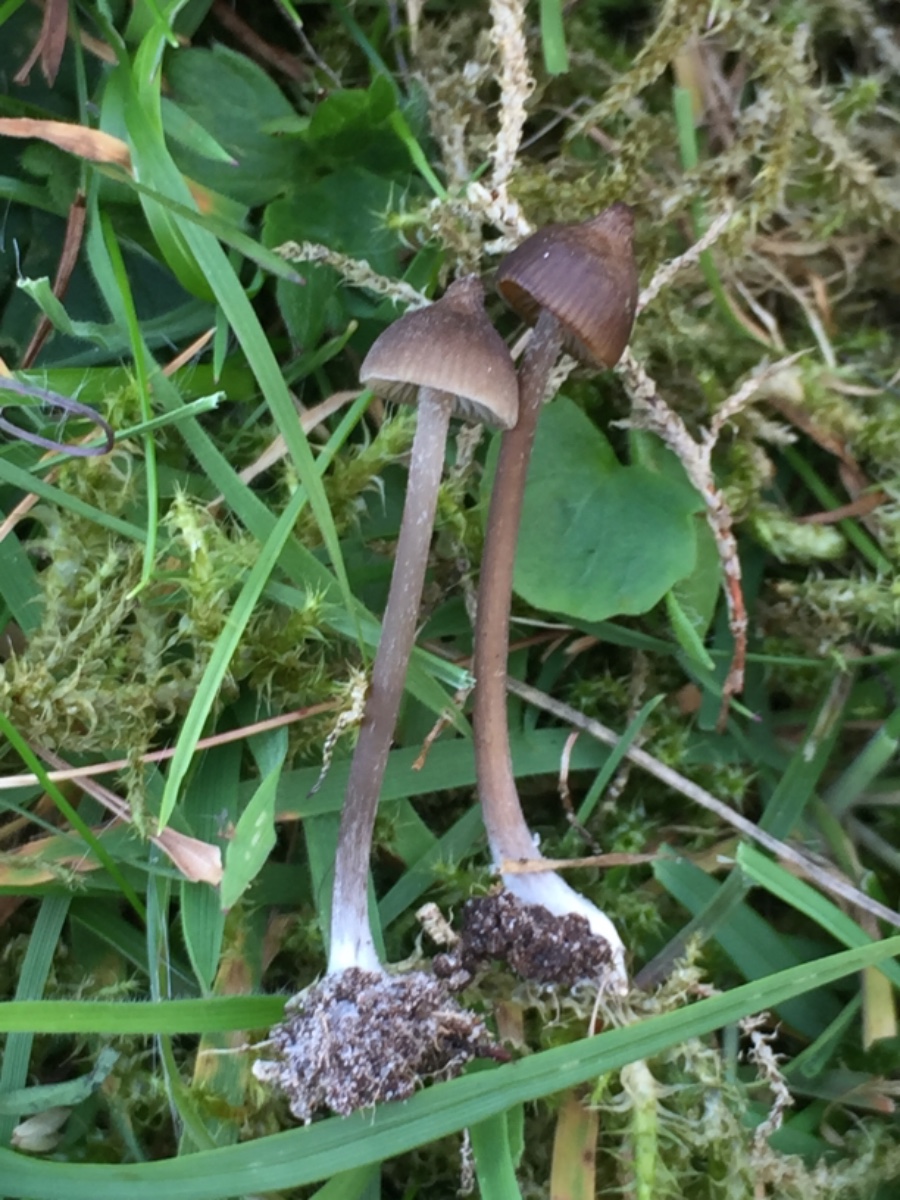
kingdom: Fungi
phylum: Basidiomycota
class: Agaricomycetes
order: Agaricales
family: Entolomataceae
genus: Entoloma
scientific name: Entoloma infula
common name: hvidbladet rødblad
